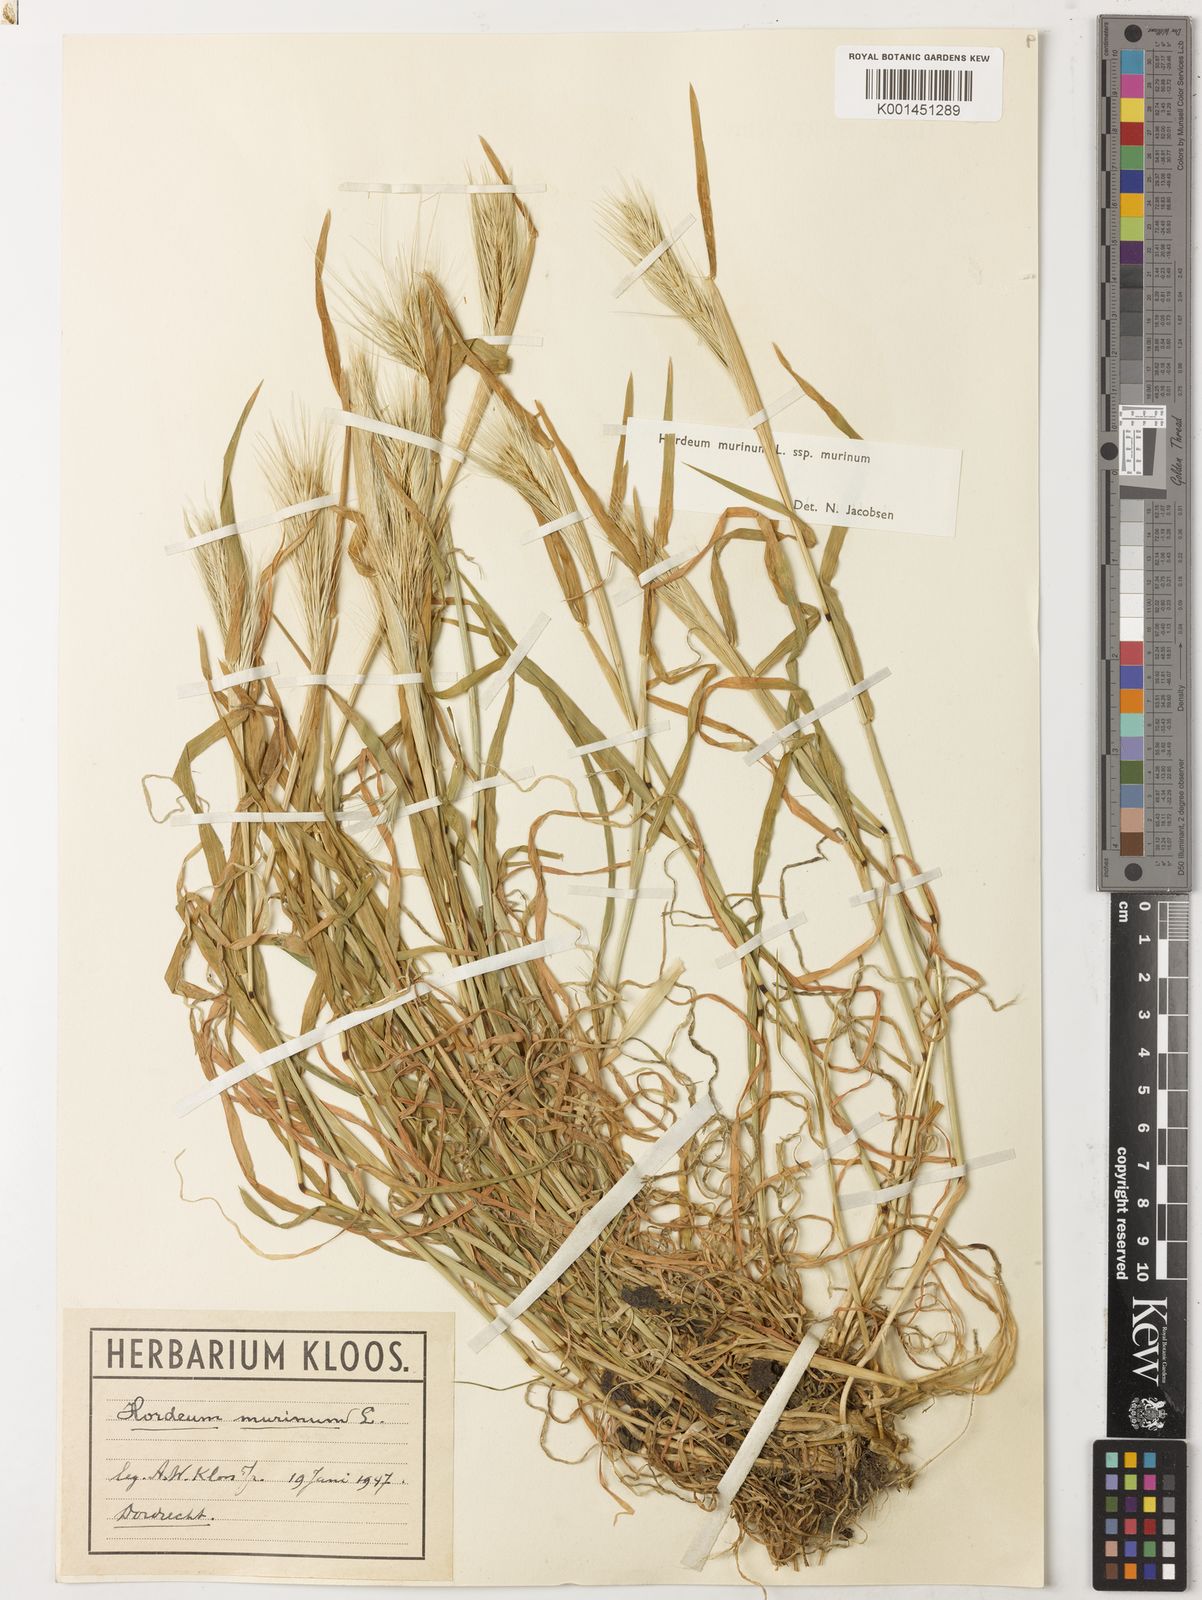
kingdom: Plantae
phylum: Tracheophyta
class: Liliopsida
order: Poales
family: Poaceae
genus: Hordeum
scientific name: Hordeum murinum
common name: Wall barley
